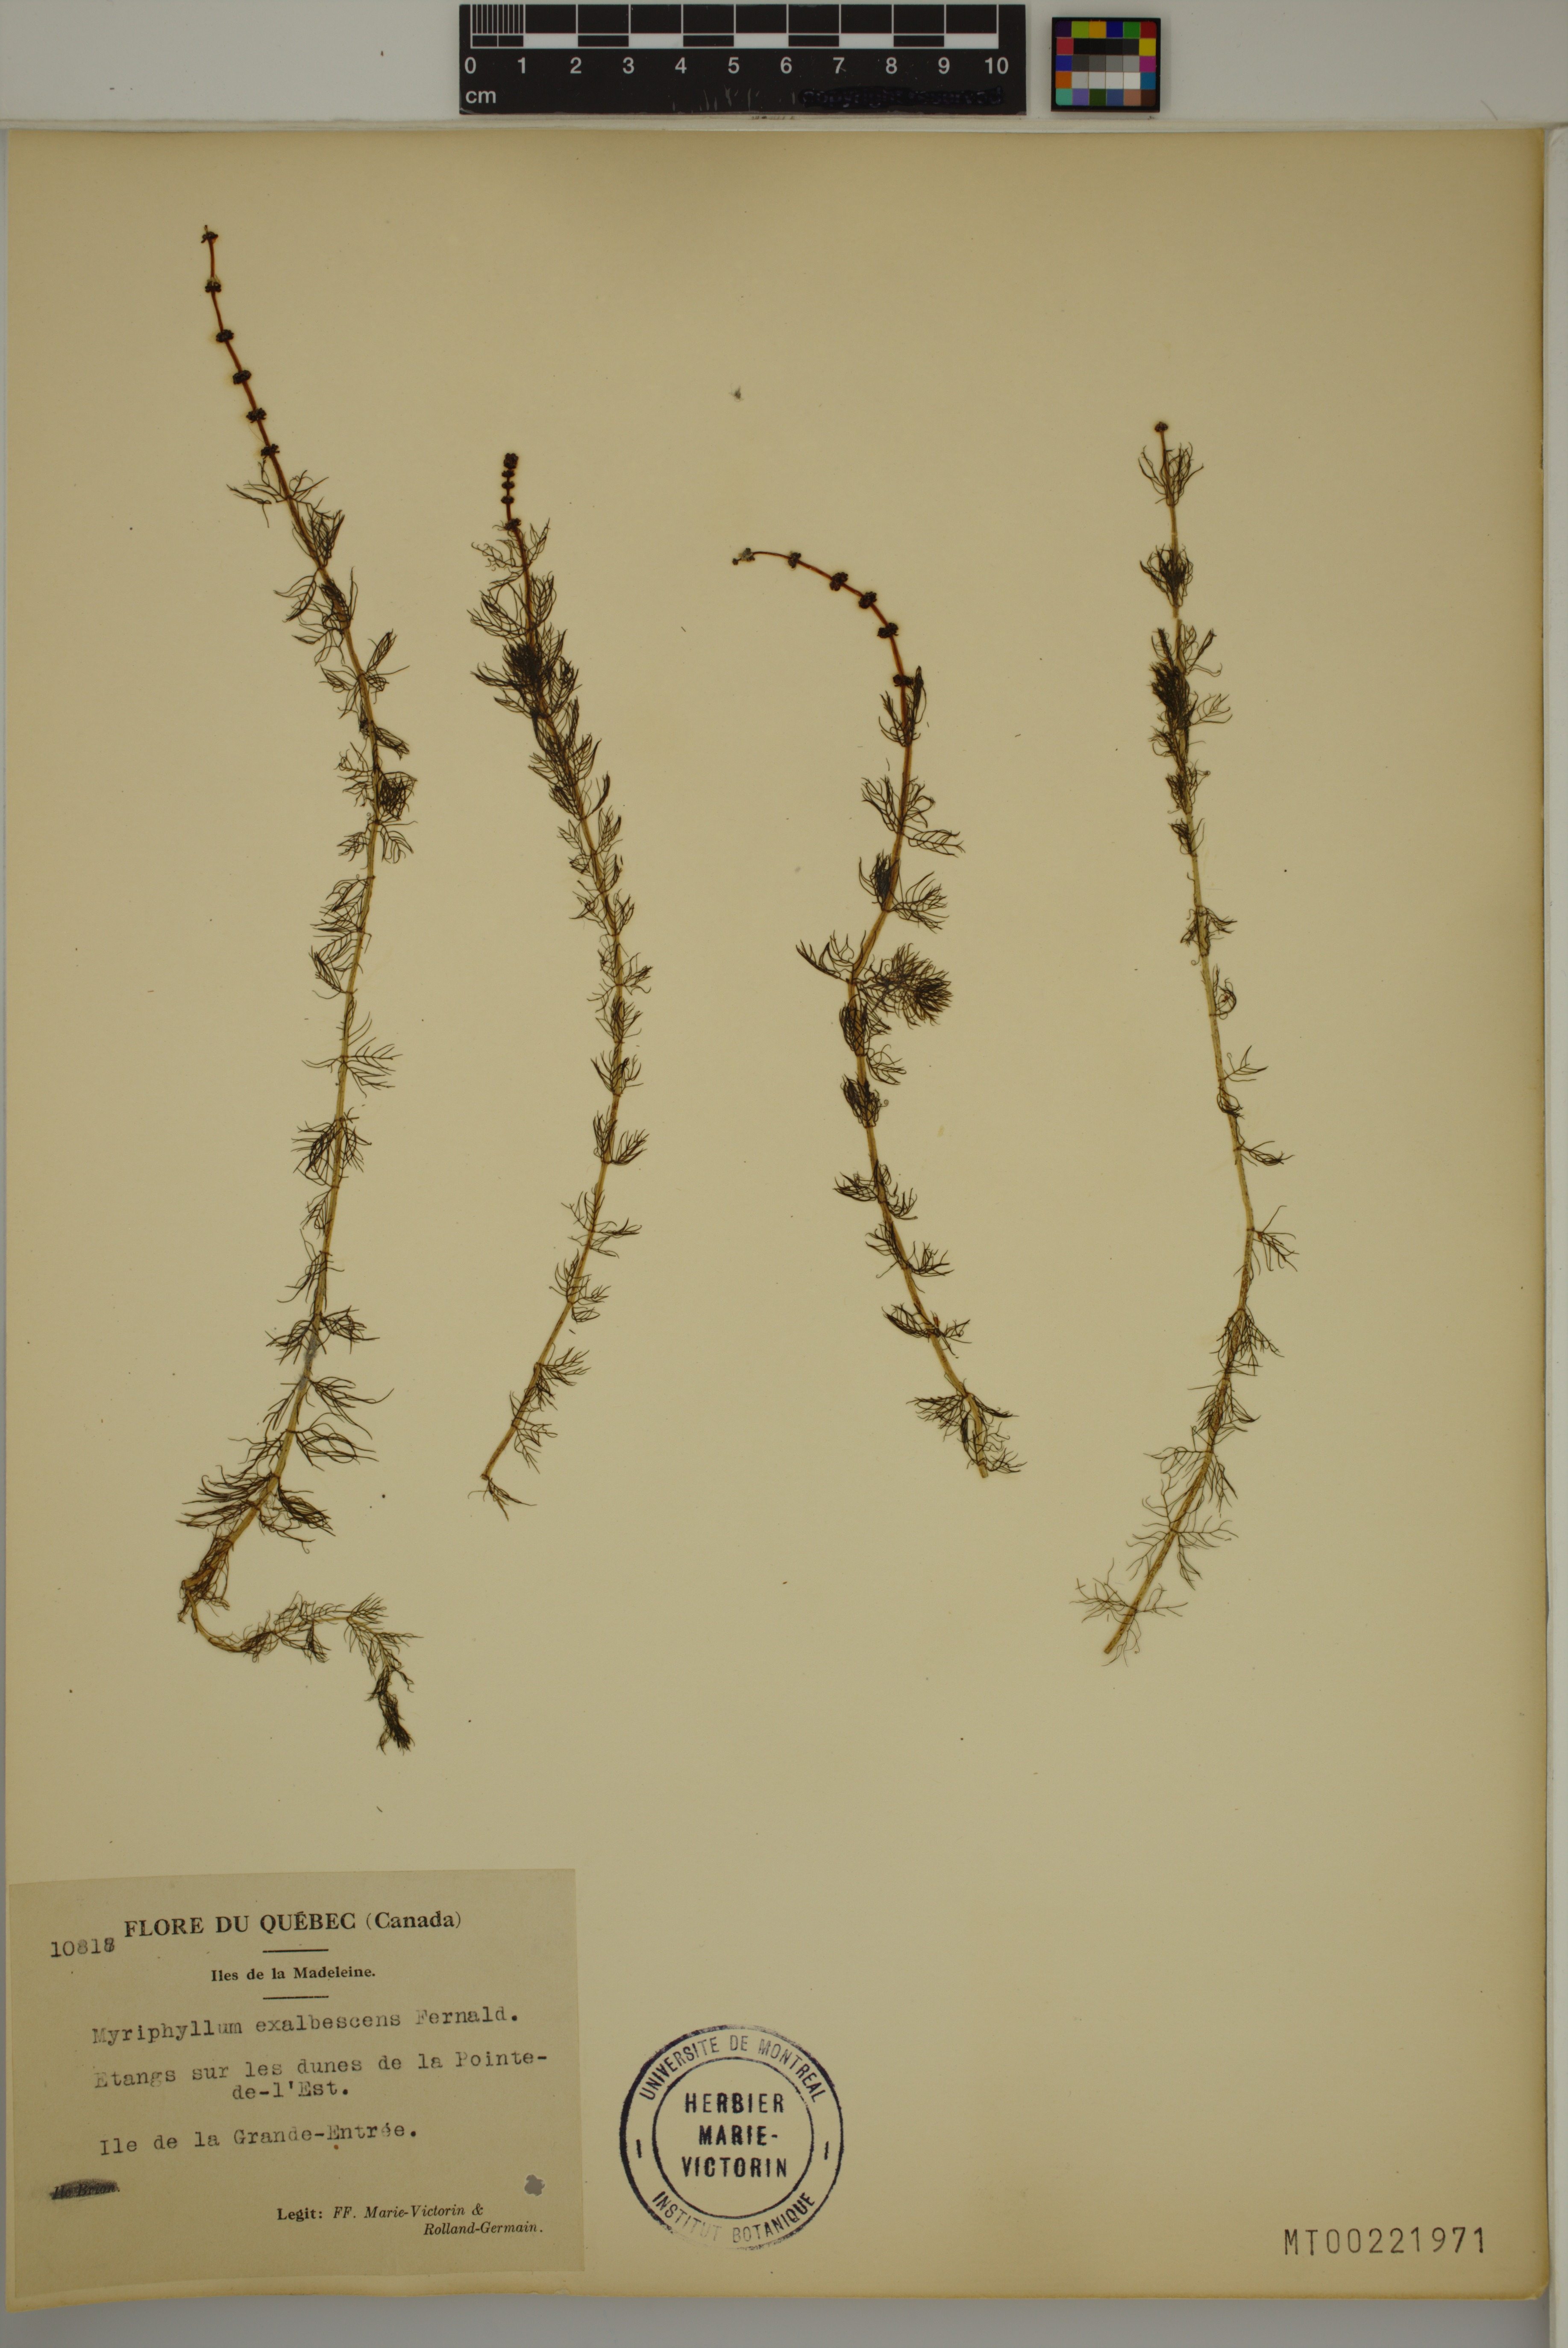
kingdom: Plantae
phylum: Tracheophyta
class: Magnoliopsida
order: Saxifragales
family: Haloragaceae
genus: Myriophyllum
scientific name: Myriophyllum sibiricum
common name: Siberian water-milfoil
